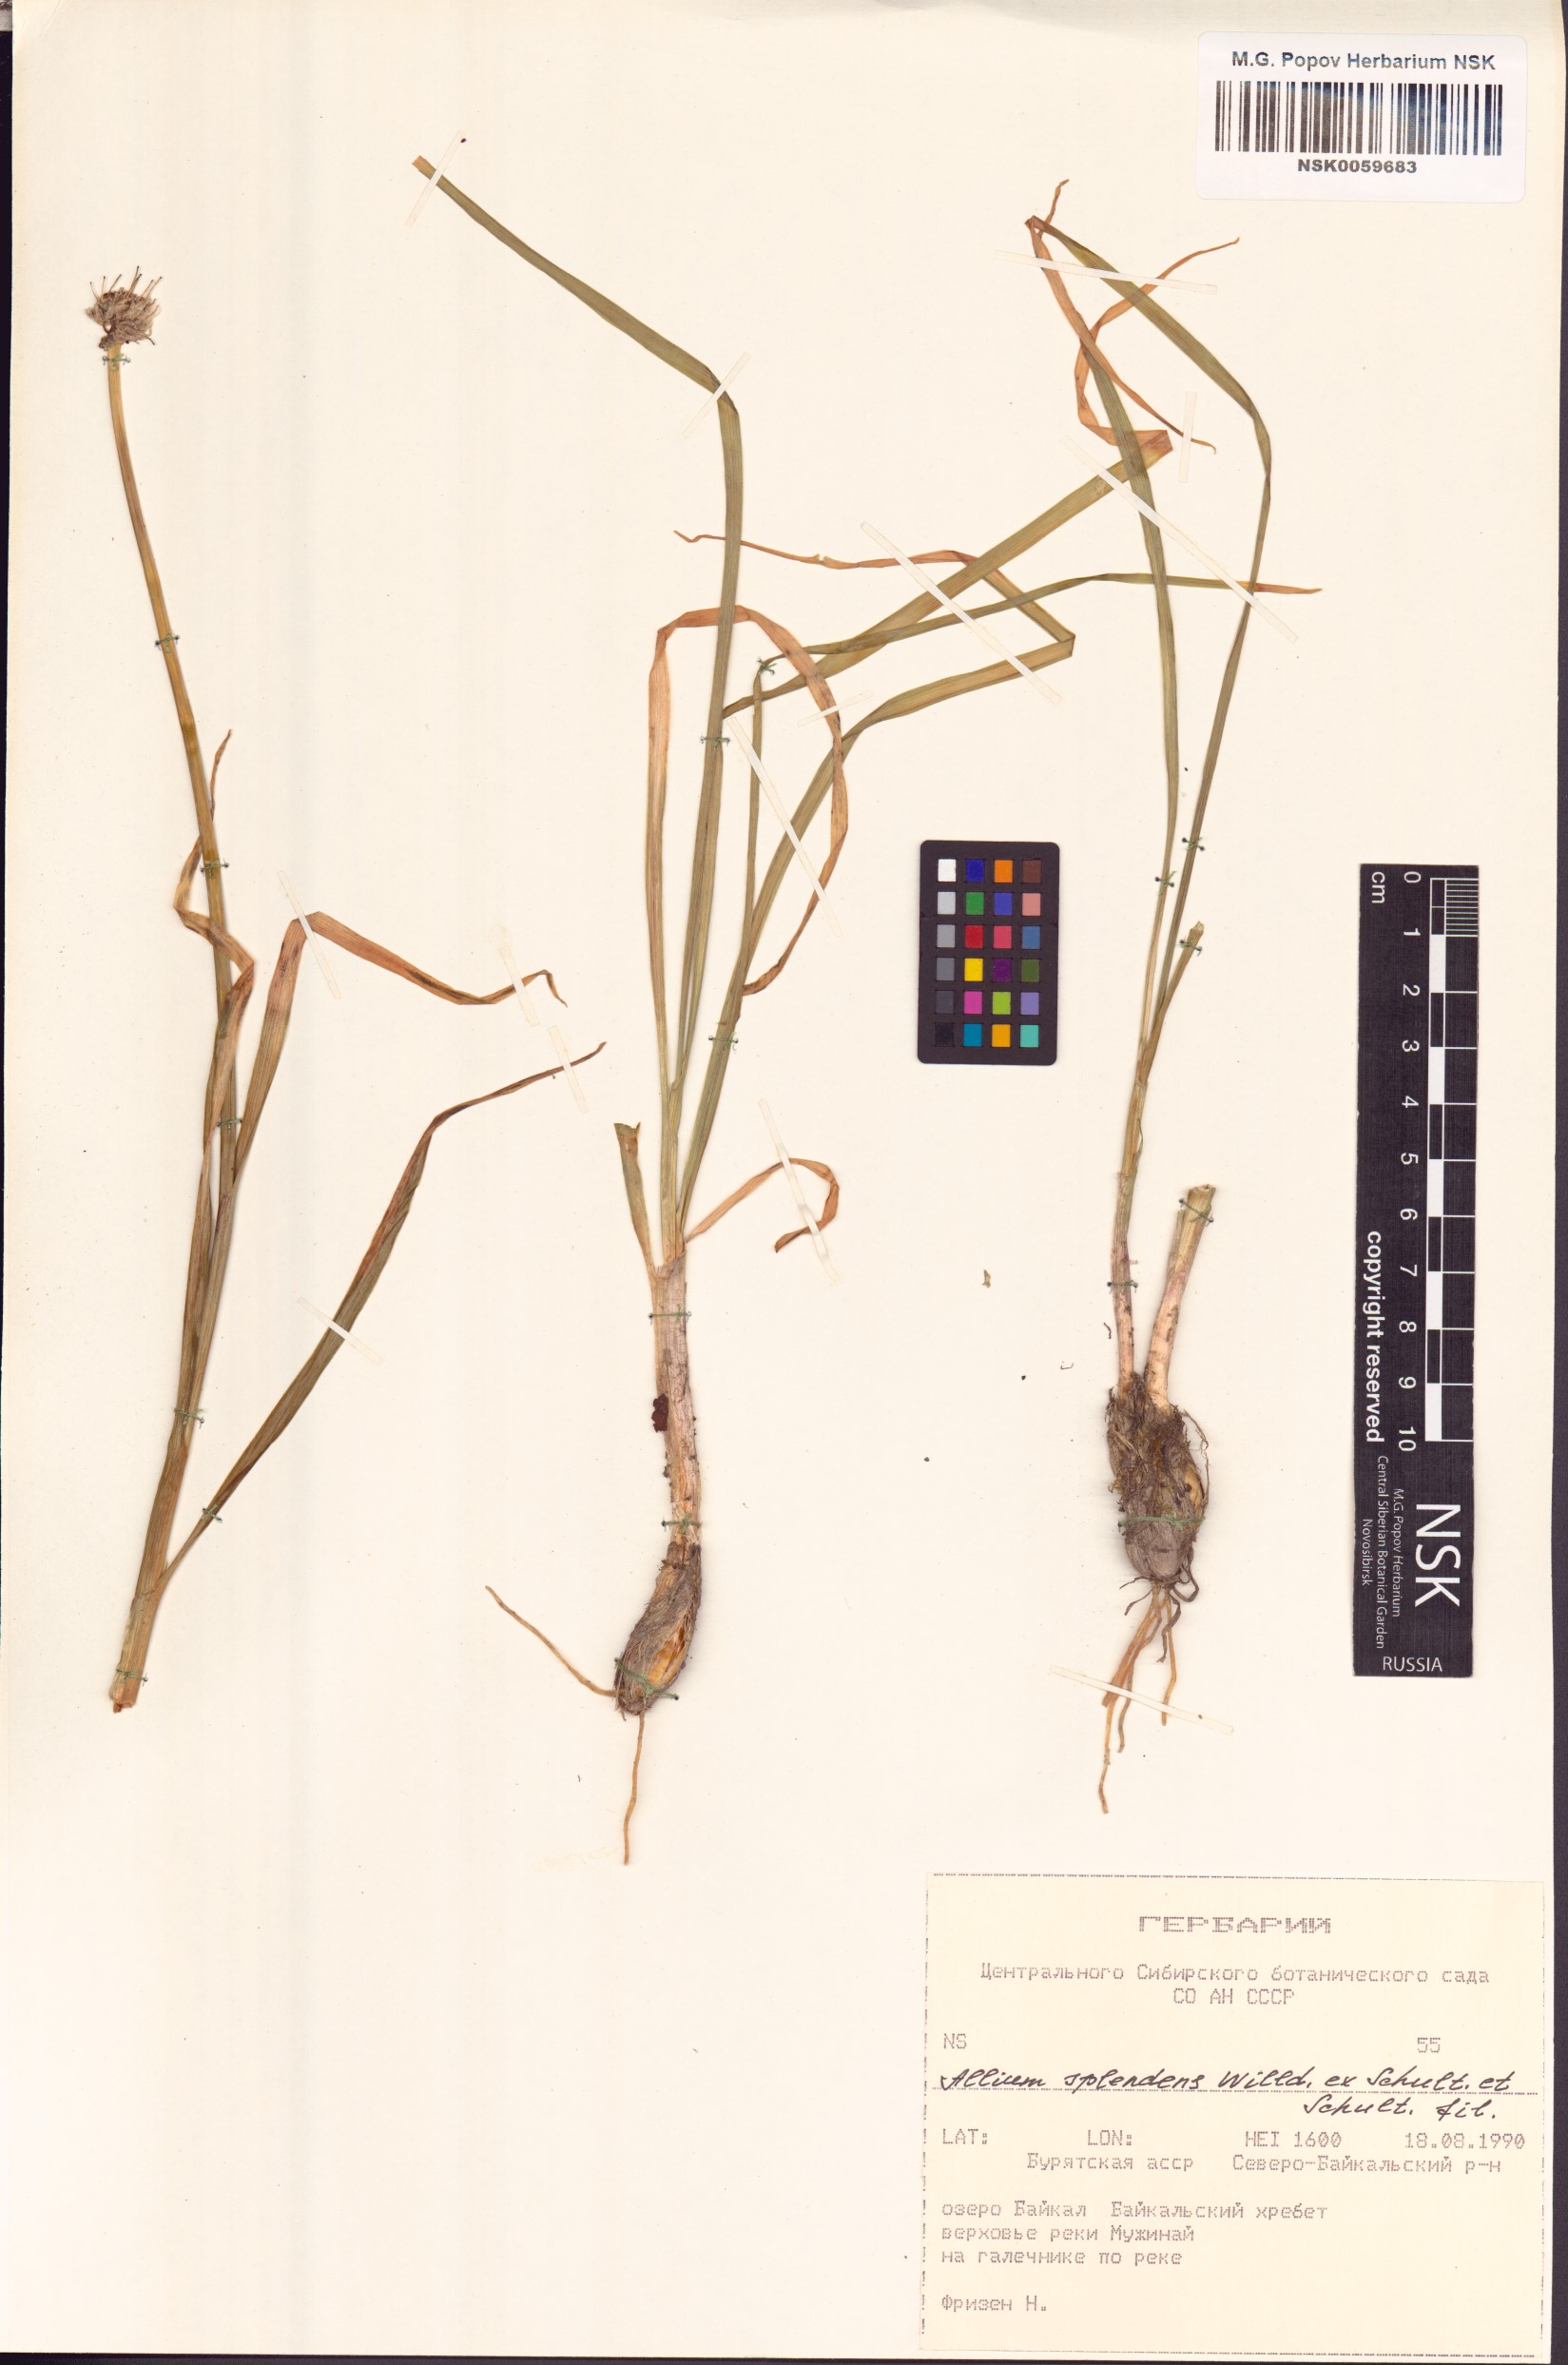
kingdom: Plantae
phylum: Tracheophyta
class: Liliopsida
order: Asparagales
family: Amaryllidaceae
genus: Allium
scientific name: Allium splendens
